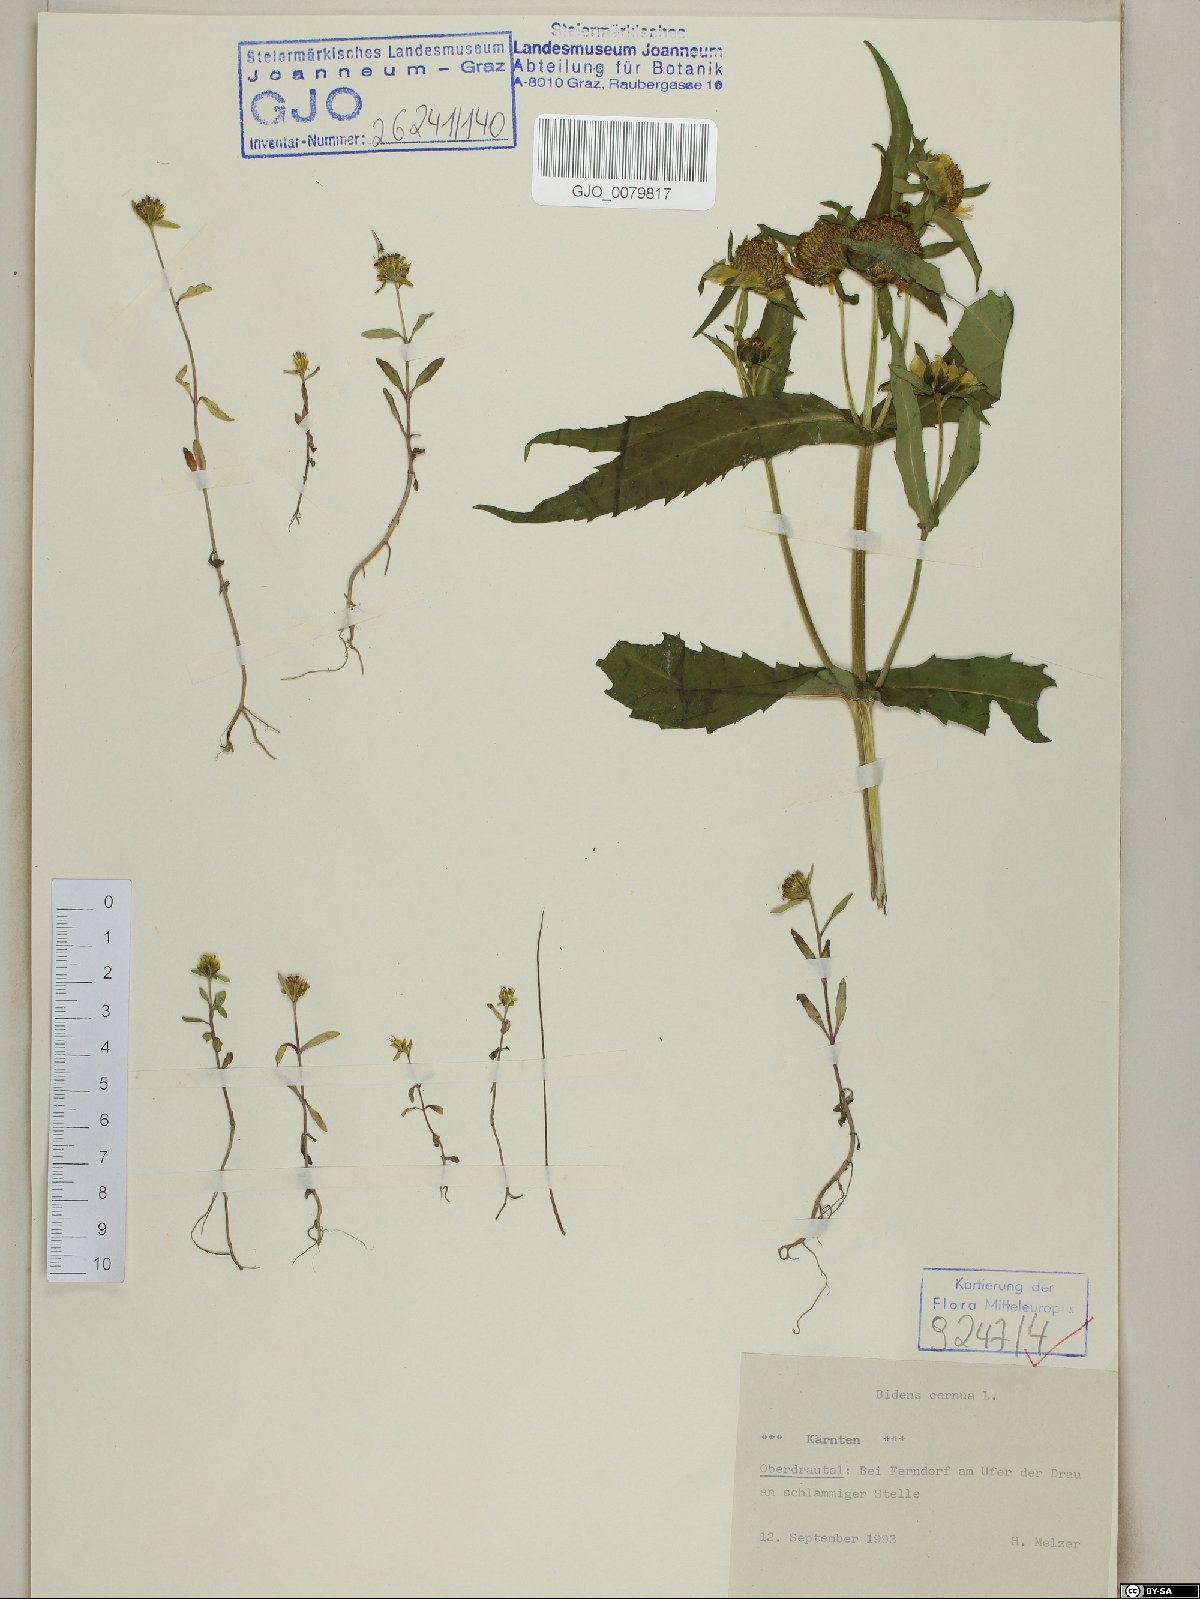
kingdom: Plantae
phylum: Tracheophyta
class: Magnoliopsida
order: Asterales
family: Asteraceae
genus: Bidens
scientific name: Bidens cernua
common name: Nodding bur-marigold
